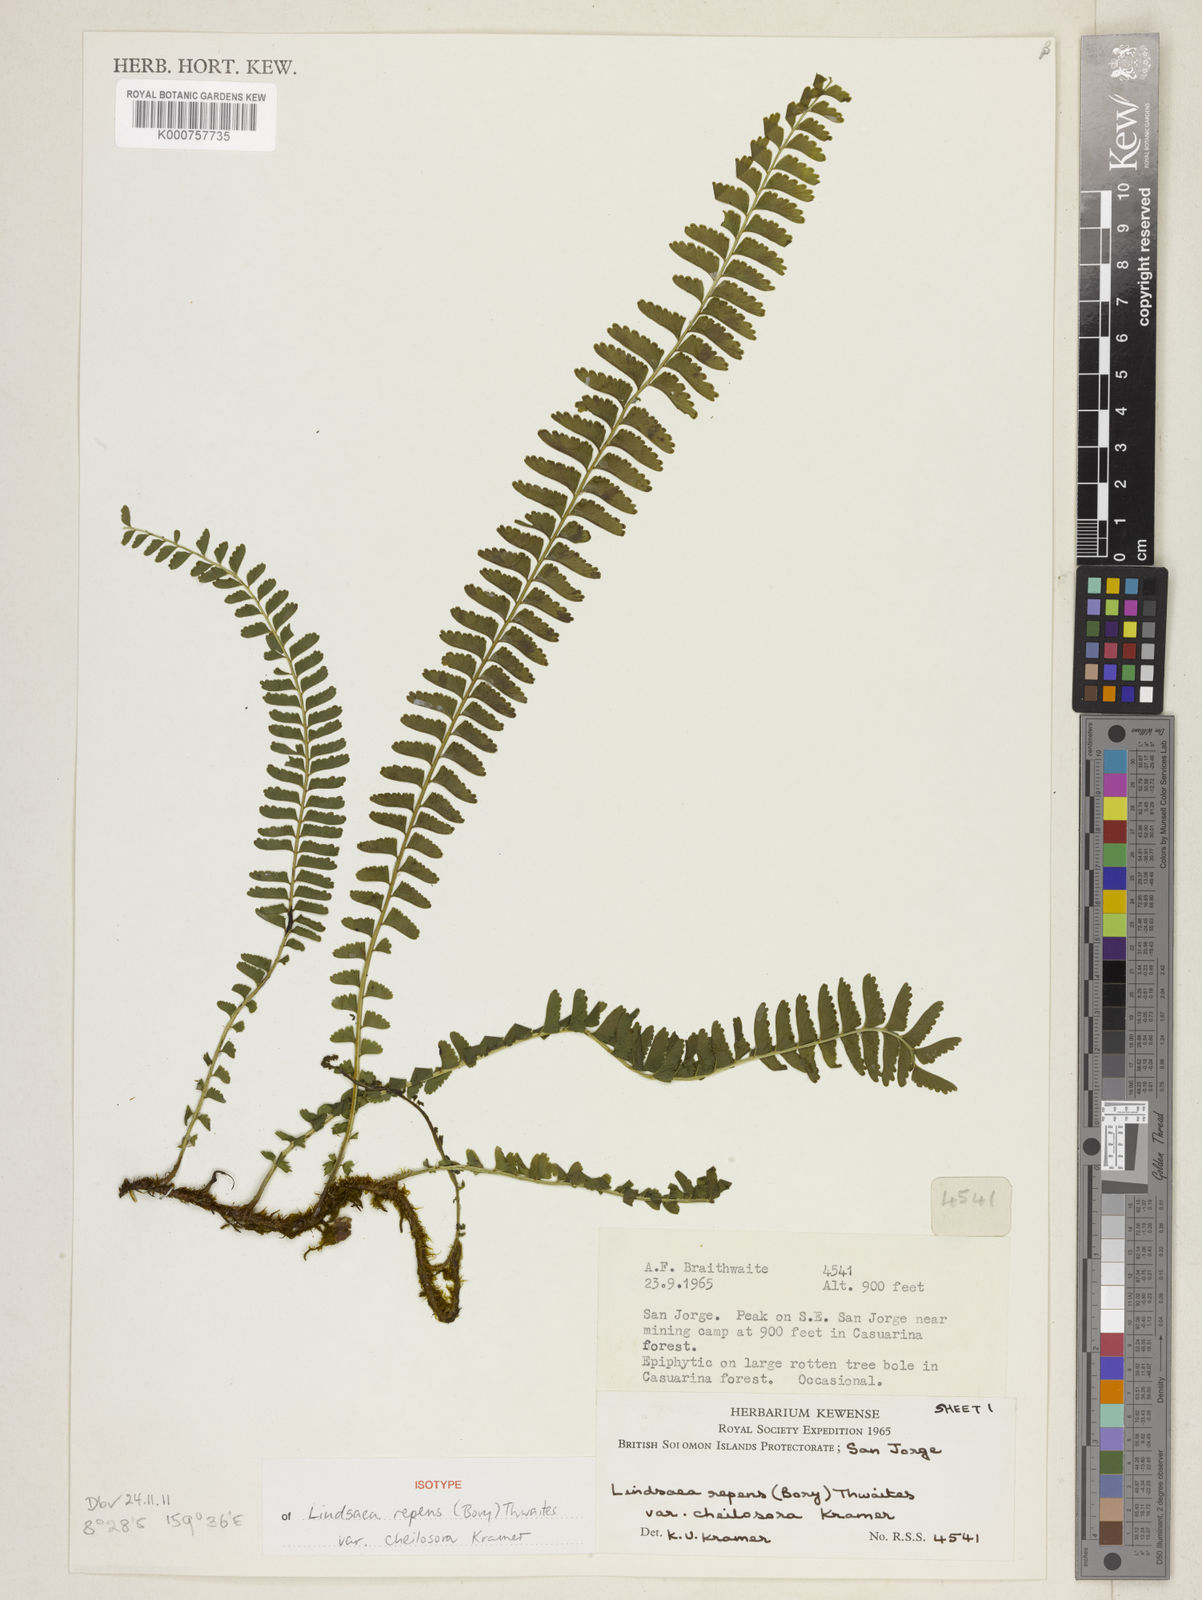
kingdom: Plantae
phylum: Tracheophyta
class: Polypodiopsida
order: Polypodiales
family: Lindsaeaceae
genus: Lindsaea
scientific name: Lindsaea cheilosora
